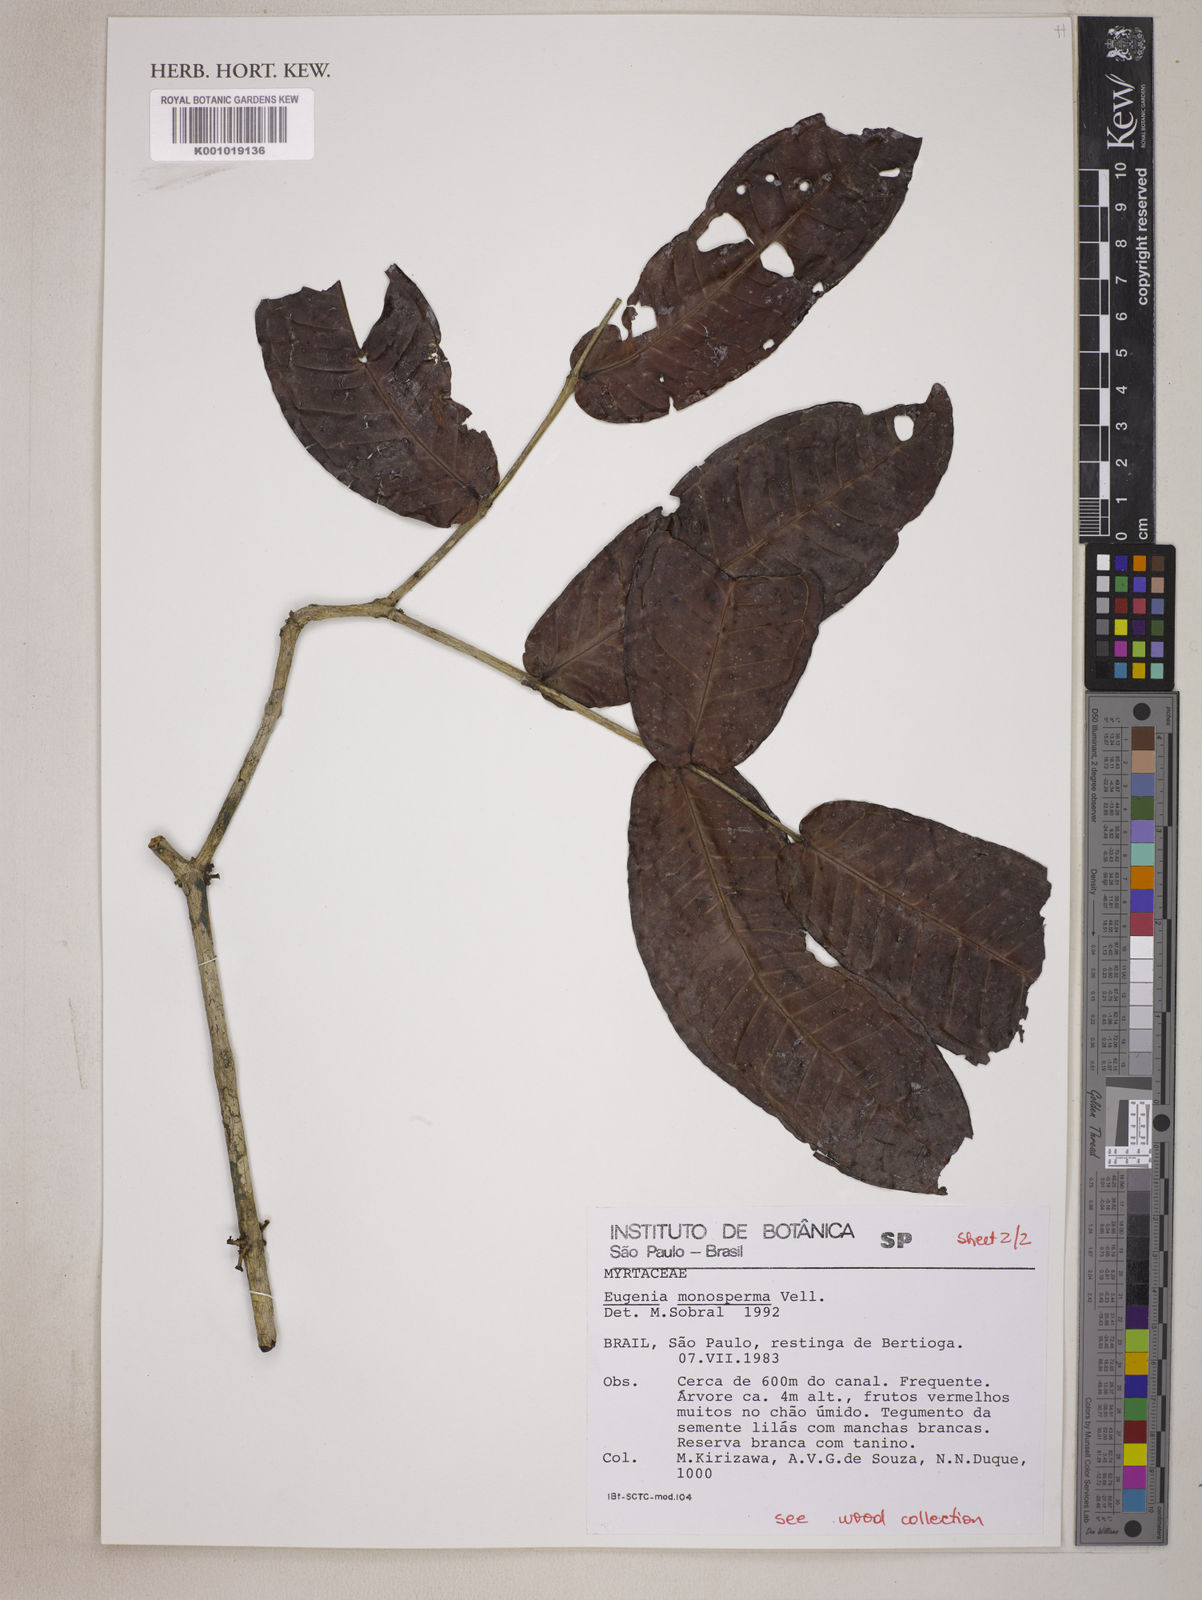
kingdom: Plantae
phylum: Tracheophyta
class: Magnoliopsida
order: Myrtales
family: Myrtaceae
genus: Eugenia
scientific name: Eugenia monosperma
